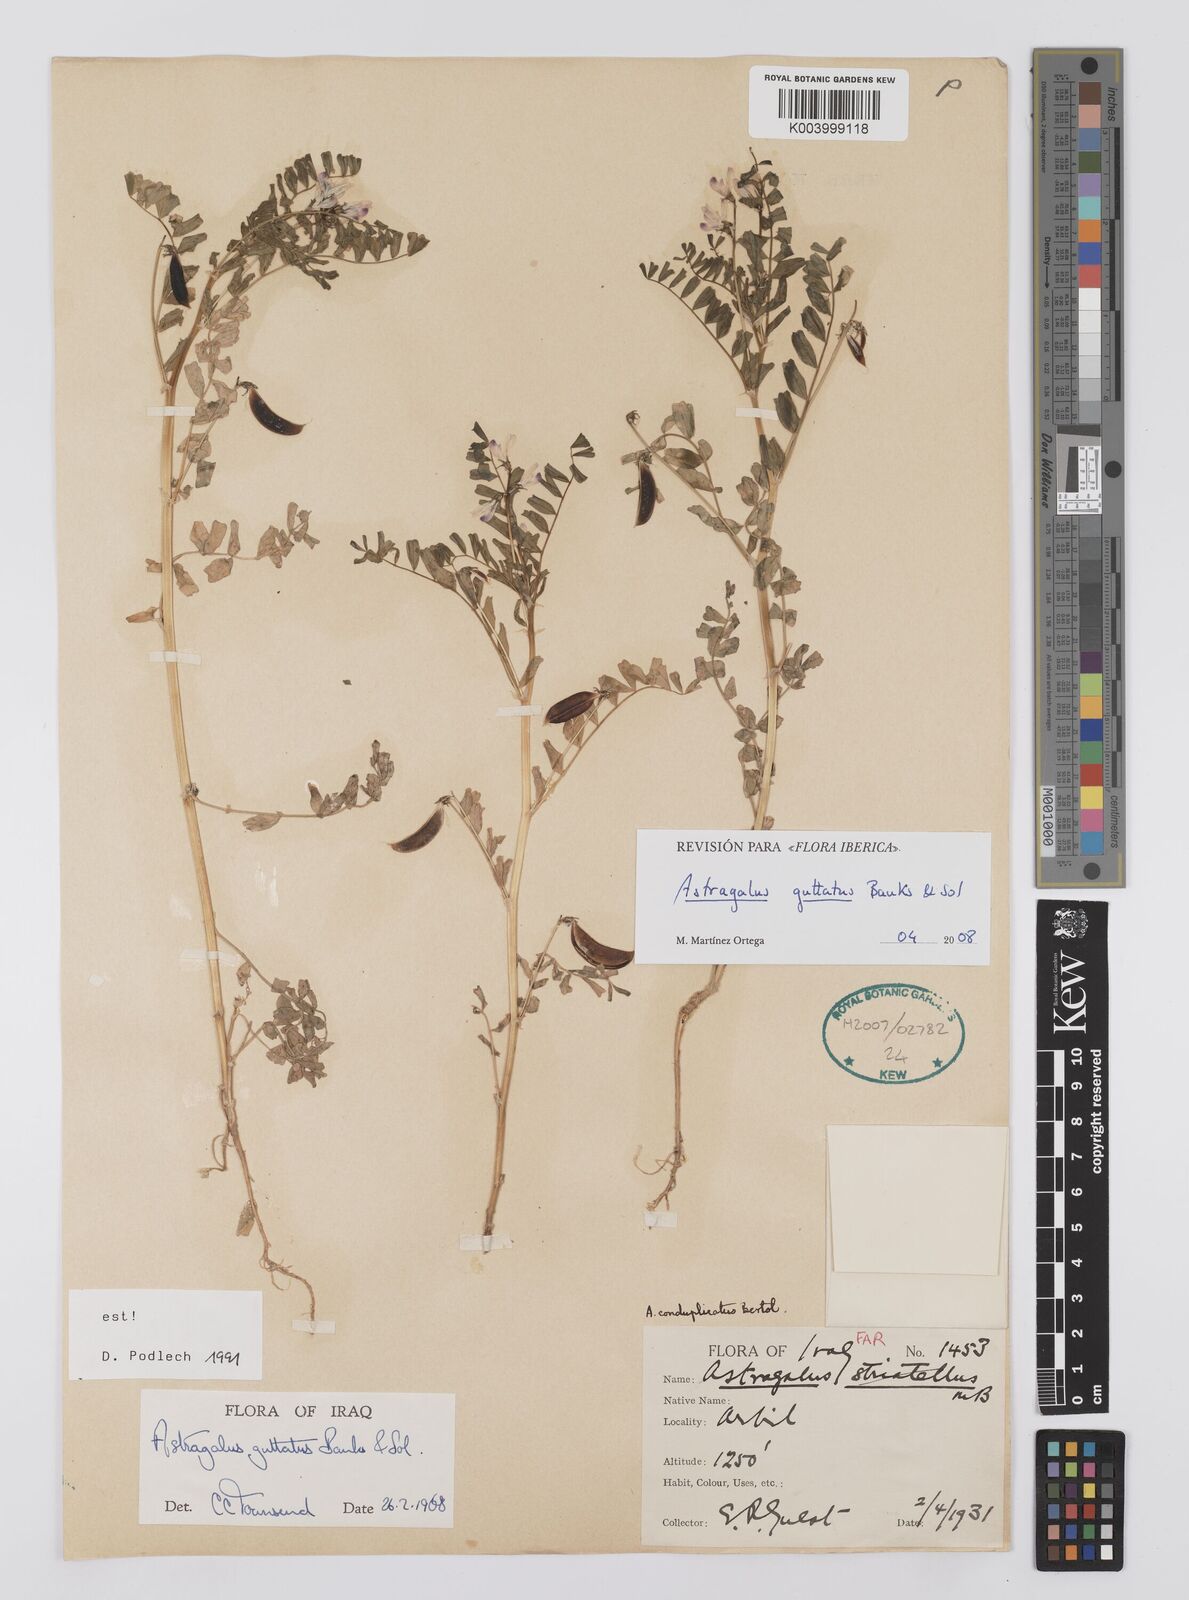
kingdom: Plantae
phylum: Tracheophyta
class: Magnoliopsida
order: Fabales
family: Fabaceae
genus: Astragalus
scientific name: Astragalus guttatus
